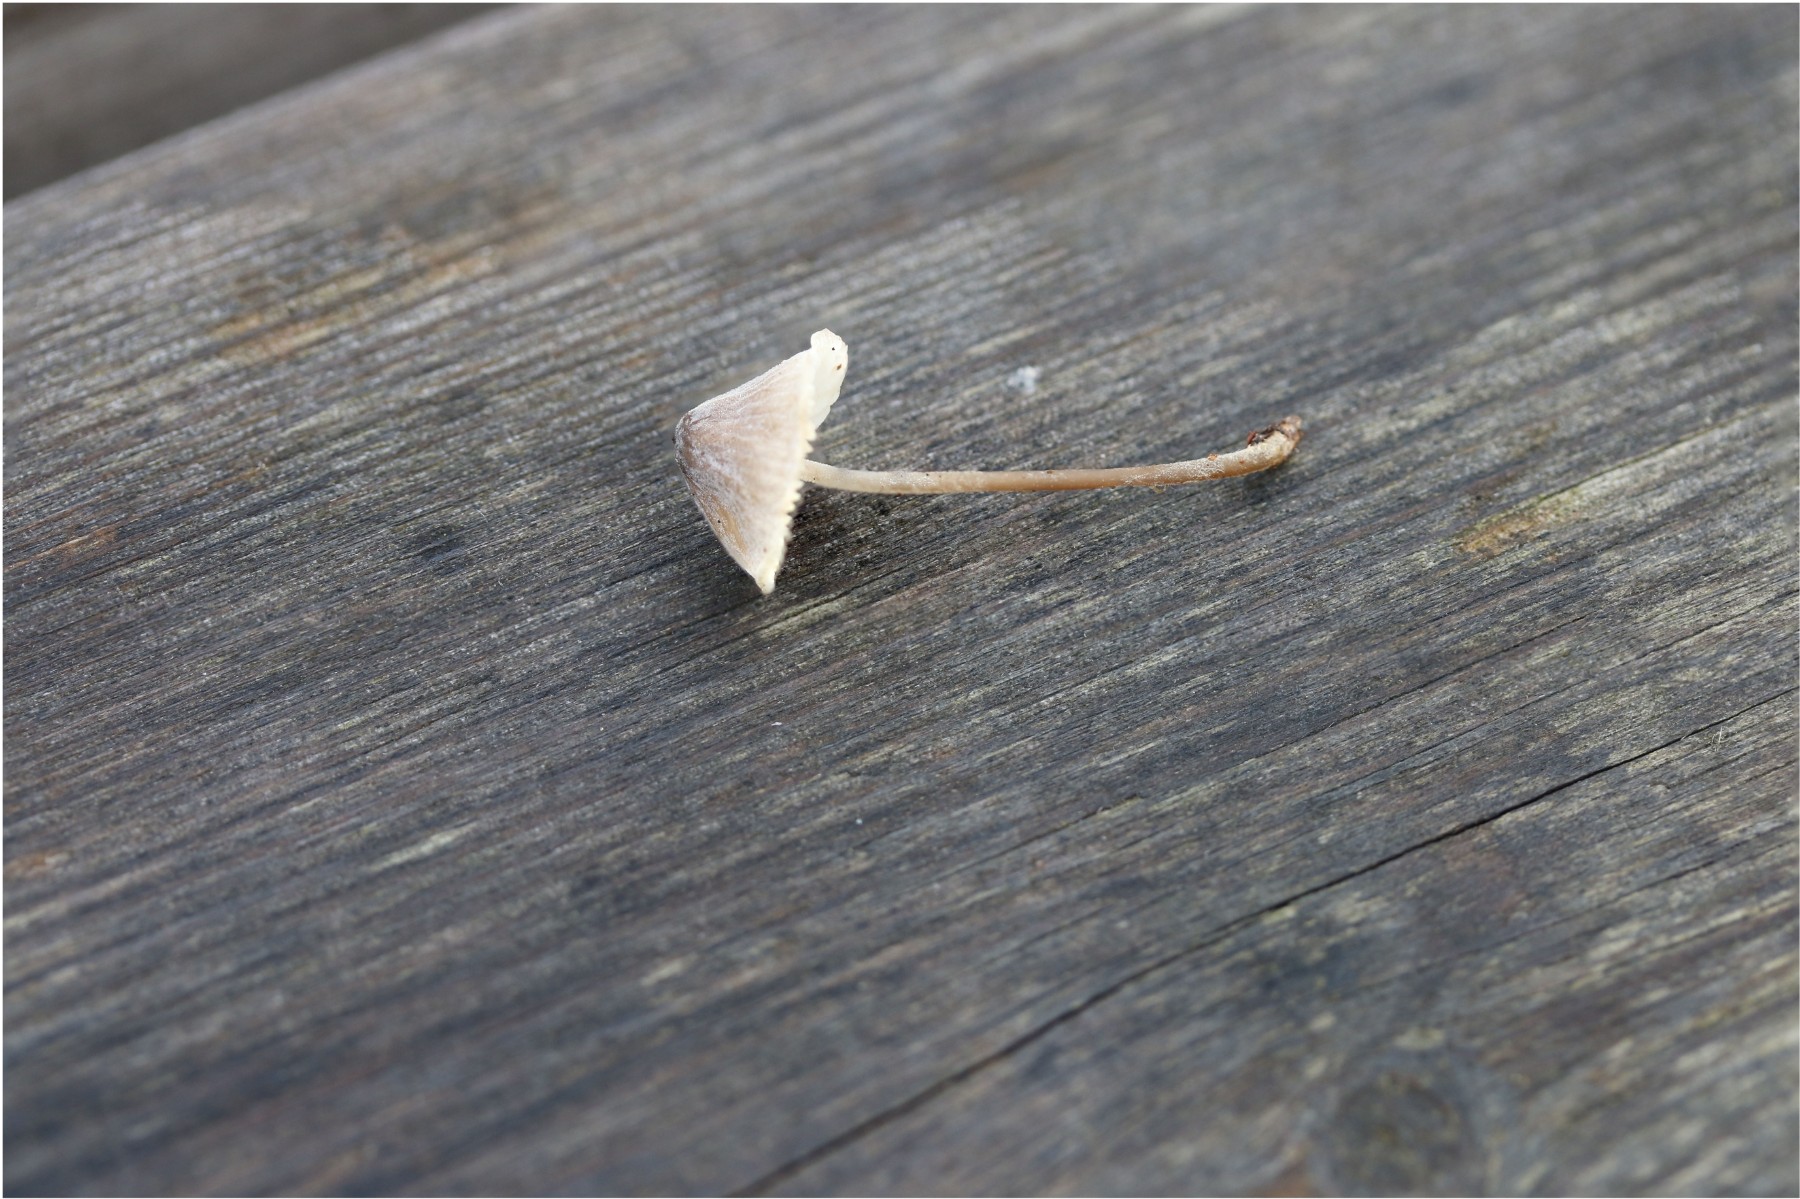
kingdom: Fungi
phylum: Basidiomycota
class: Agaricomycetes
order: Agaricales
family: Tricholomataceae
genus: Mycenella
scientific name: Mycenella bryophila
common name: mos-dughat
